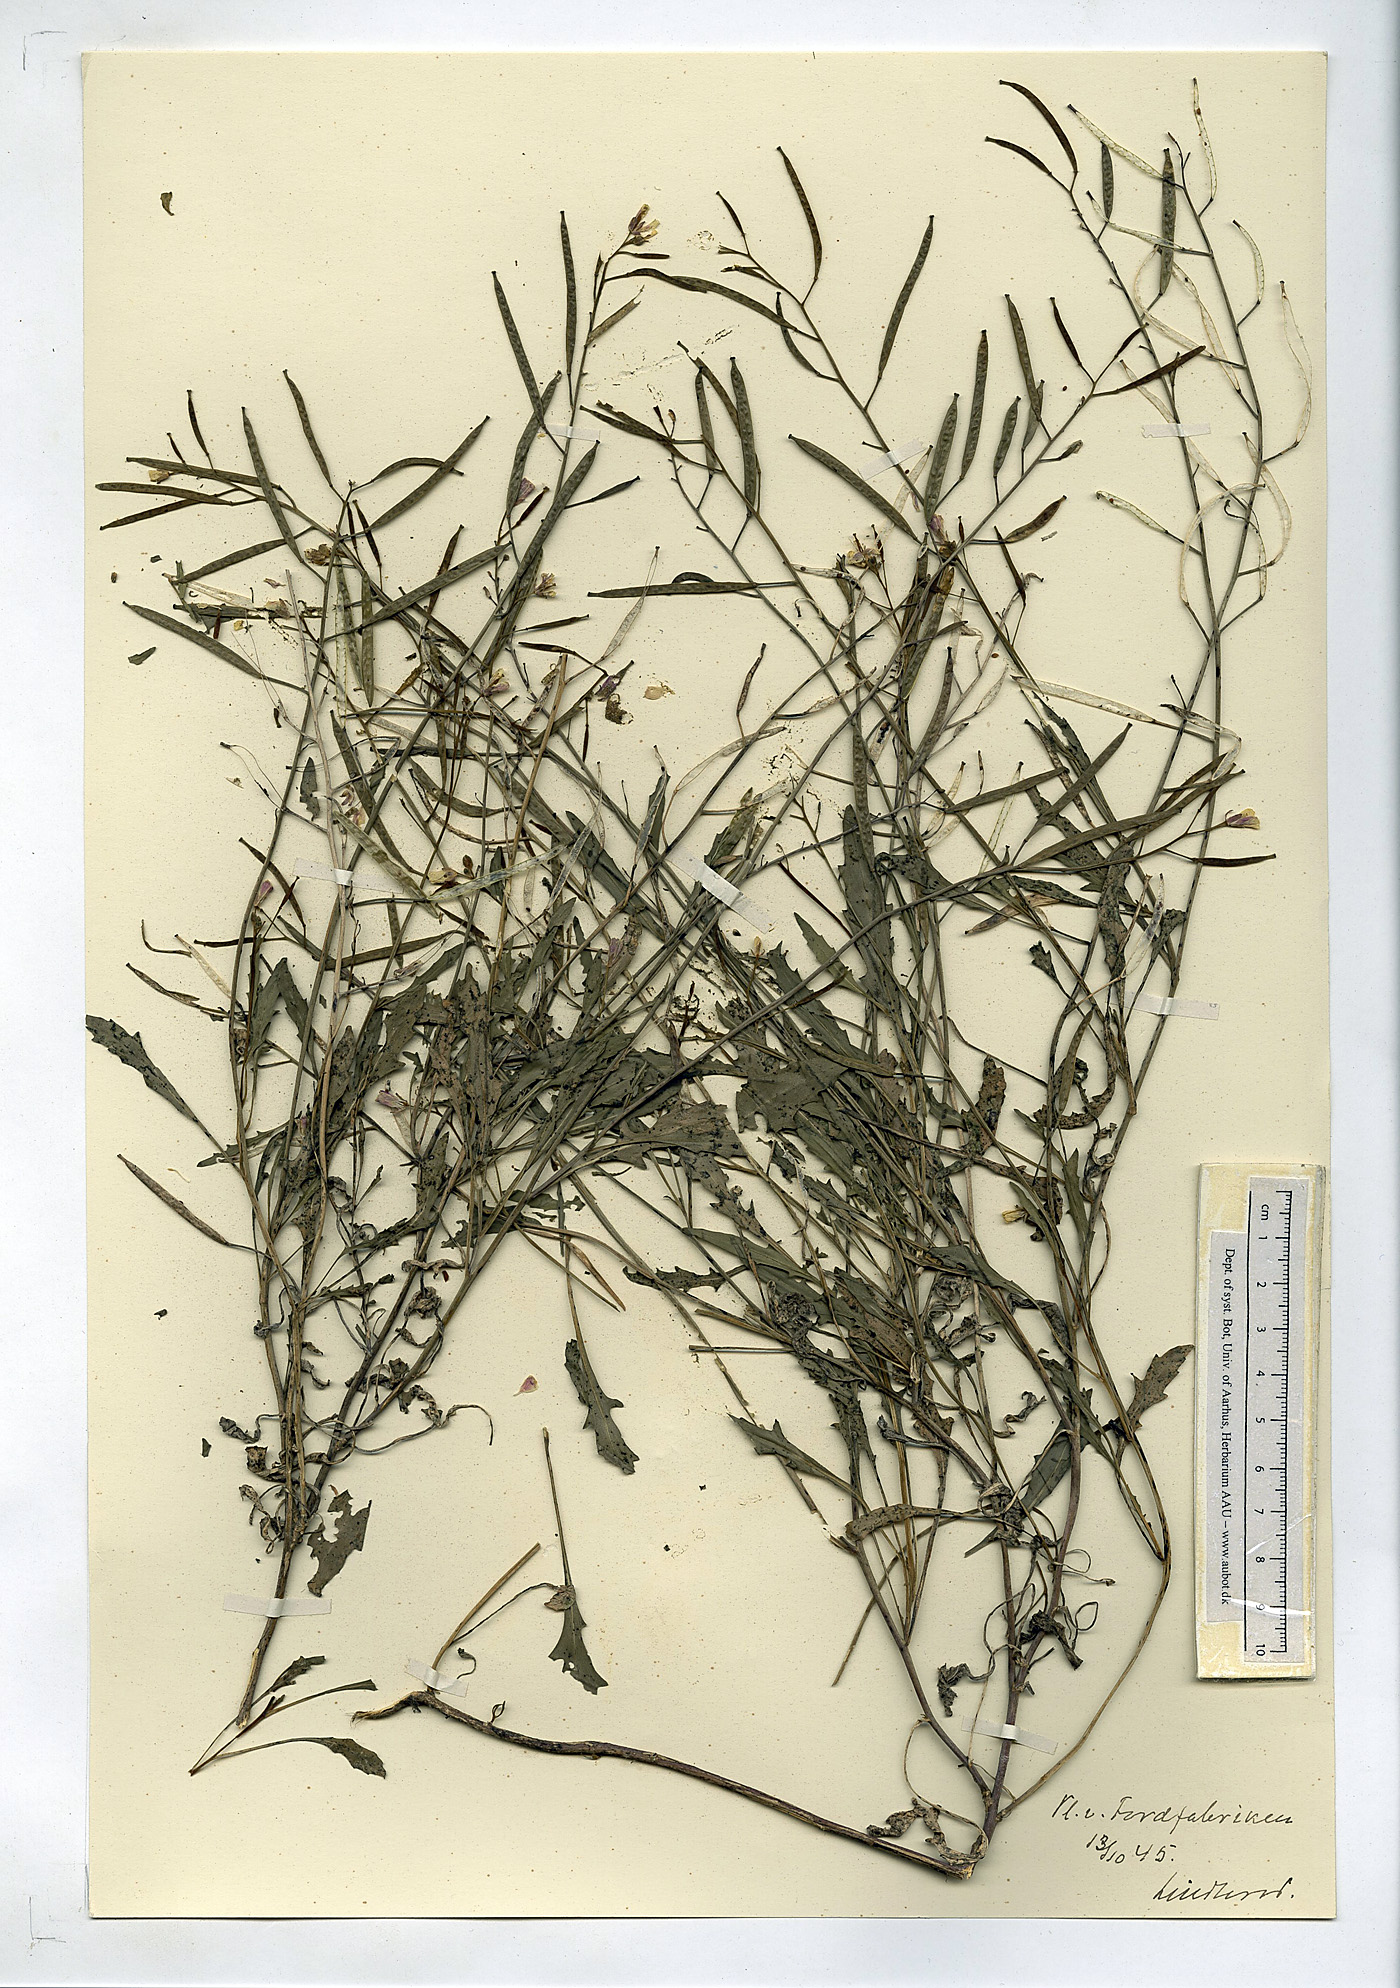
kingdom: Plantae
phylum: Tracheophyta
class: Magnoliopsida
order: Brassicales
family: Brassicaceae
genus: Diplotaxis
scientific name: Diplotaxis muralis
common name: Annual wall-rocket
